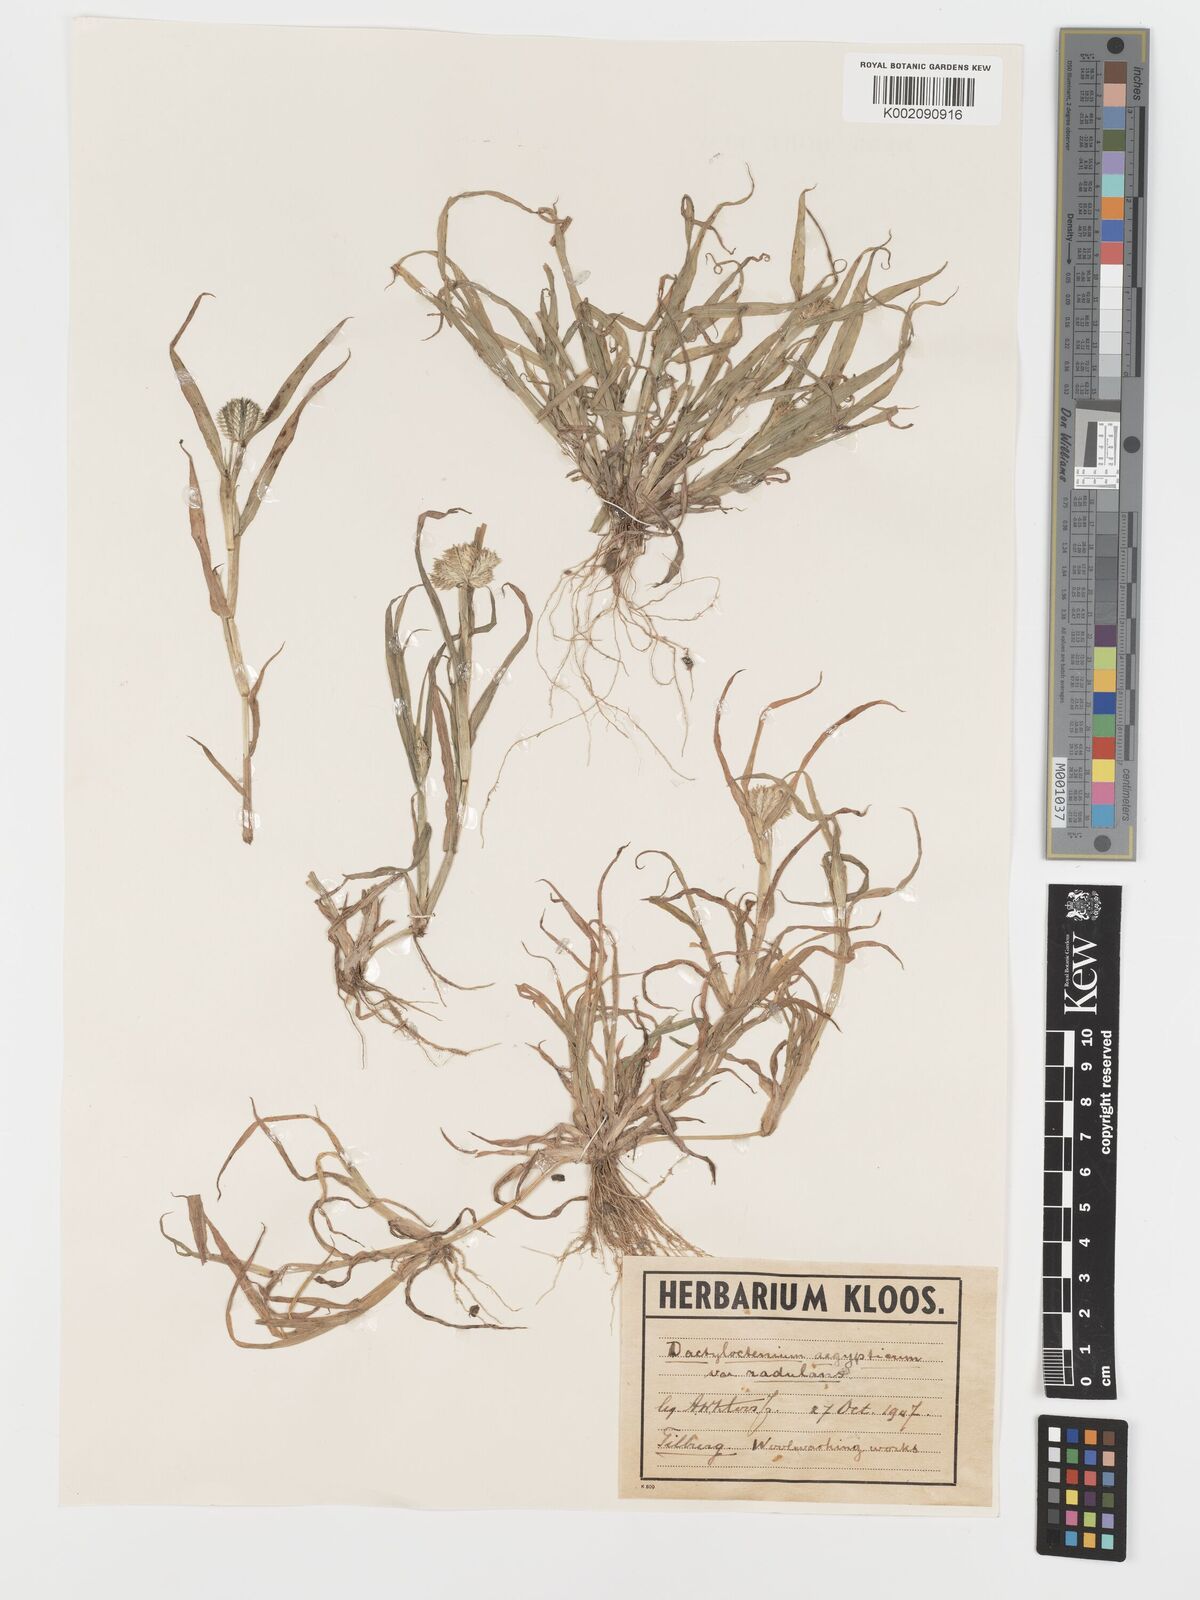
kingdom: Plantae
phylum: Tracheophyta
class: Liliopsida
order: Poales
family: Poaceae
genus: Dactyloctenium
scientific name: Dactyloctenium aegyptium
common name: Egyptian grass
